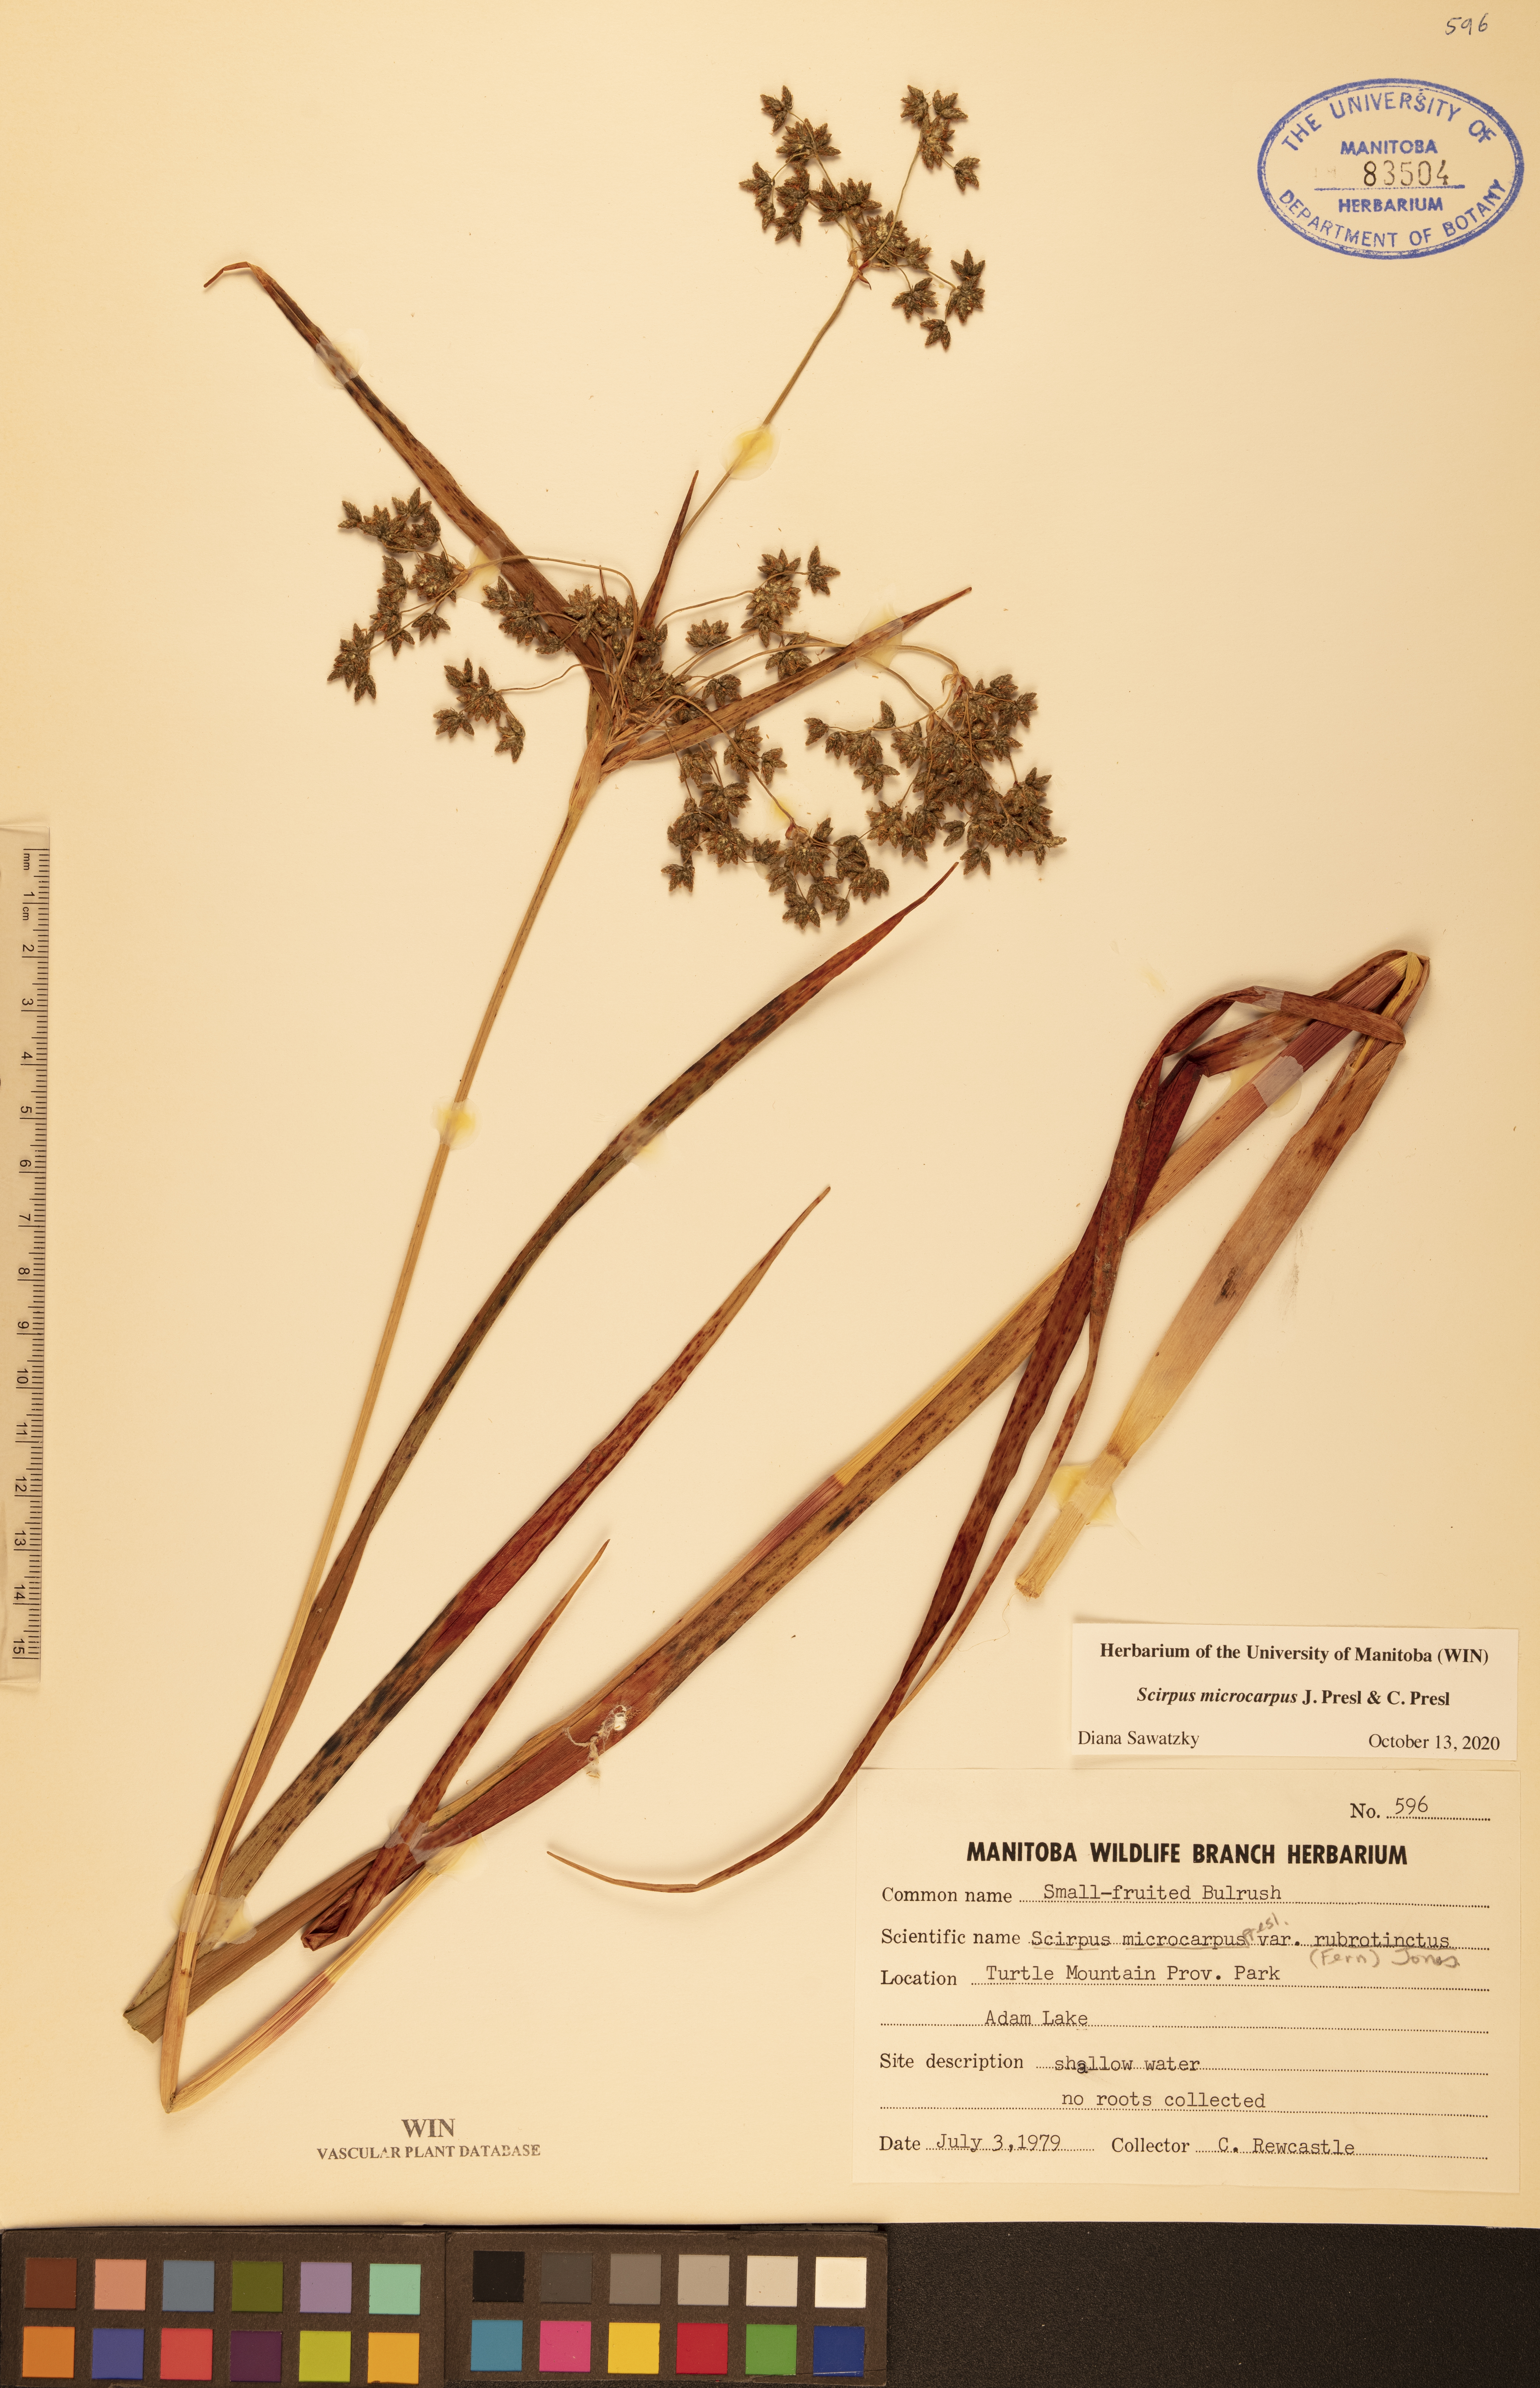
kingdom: Plantae
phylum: Tracheophyta
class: Liliopsida
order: Poales
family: Cyperaceae
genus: Scirpus
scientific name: Scirpus microcarpus
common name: Panicled bulrush
